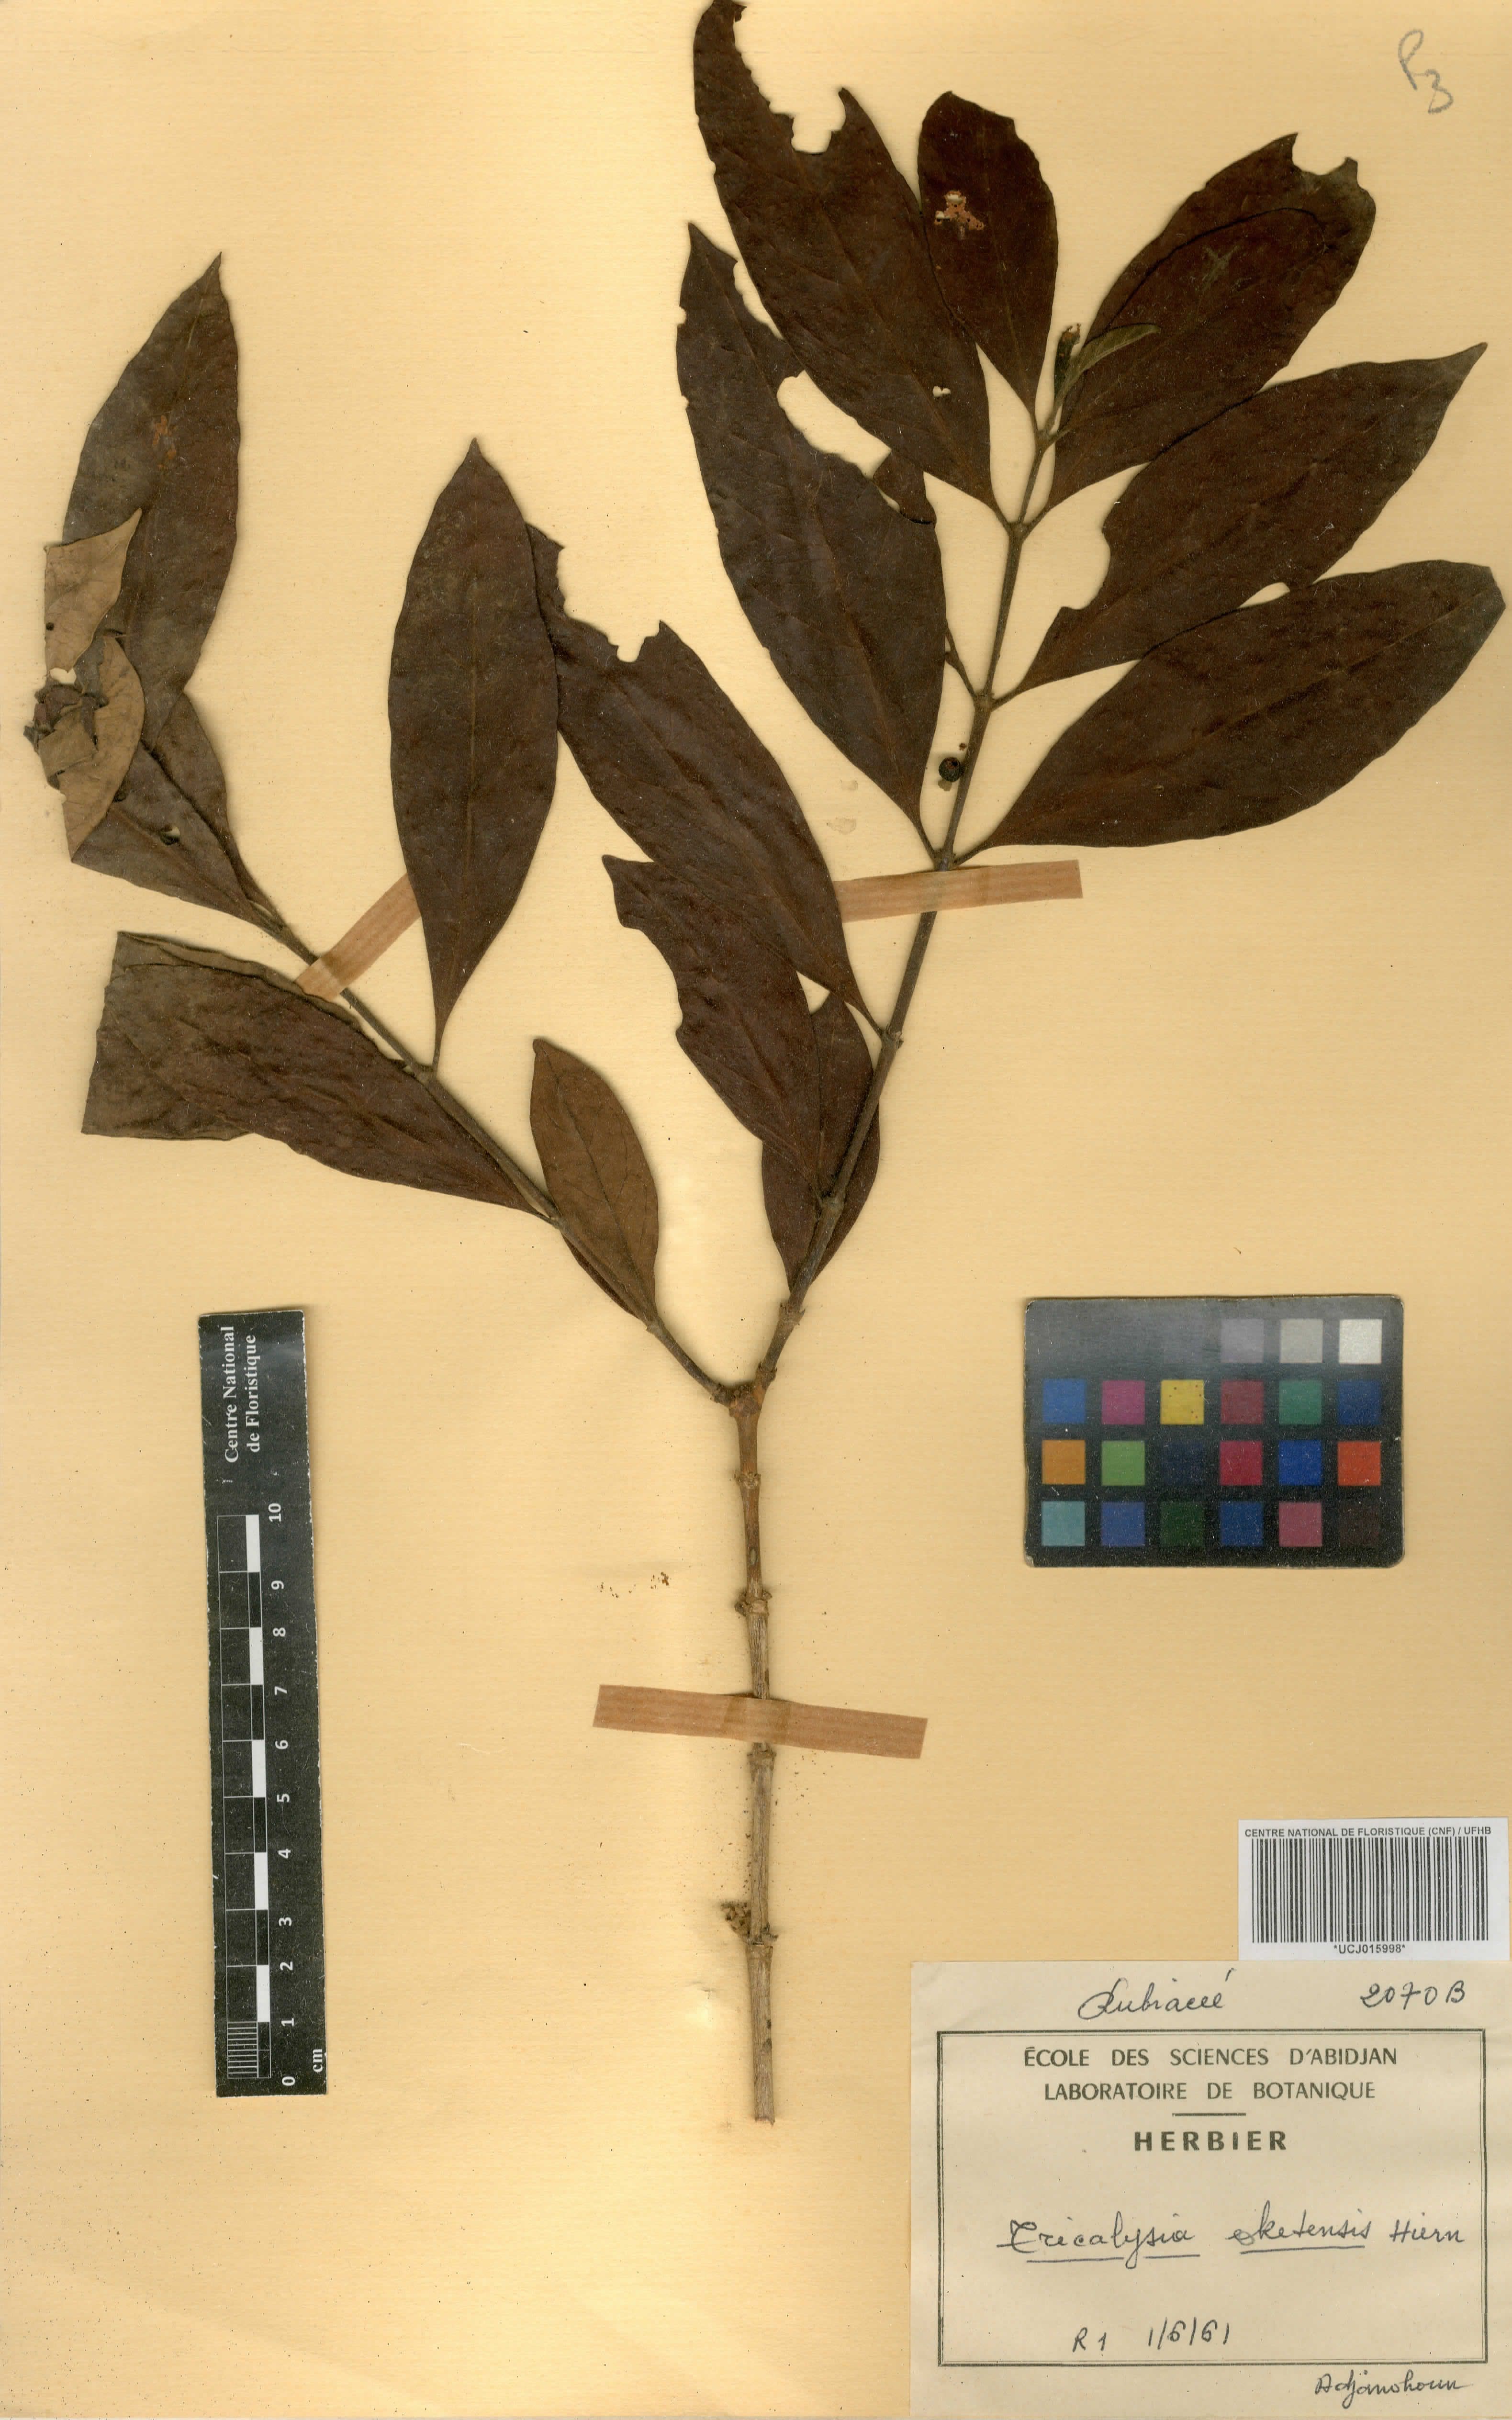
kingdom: Plantae
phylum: Tracheophyta
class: Magnoliopsida
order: Gentianales
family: Rubiaceae
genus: Tricalysia
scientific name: Tricalysia okelensis
